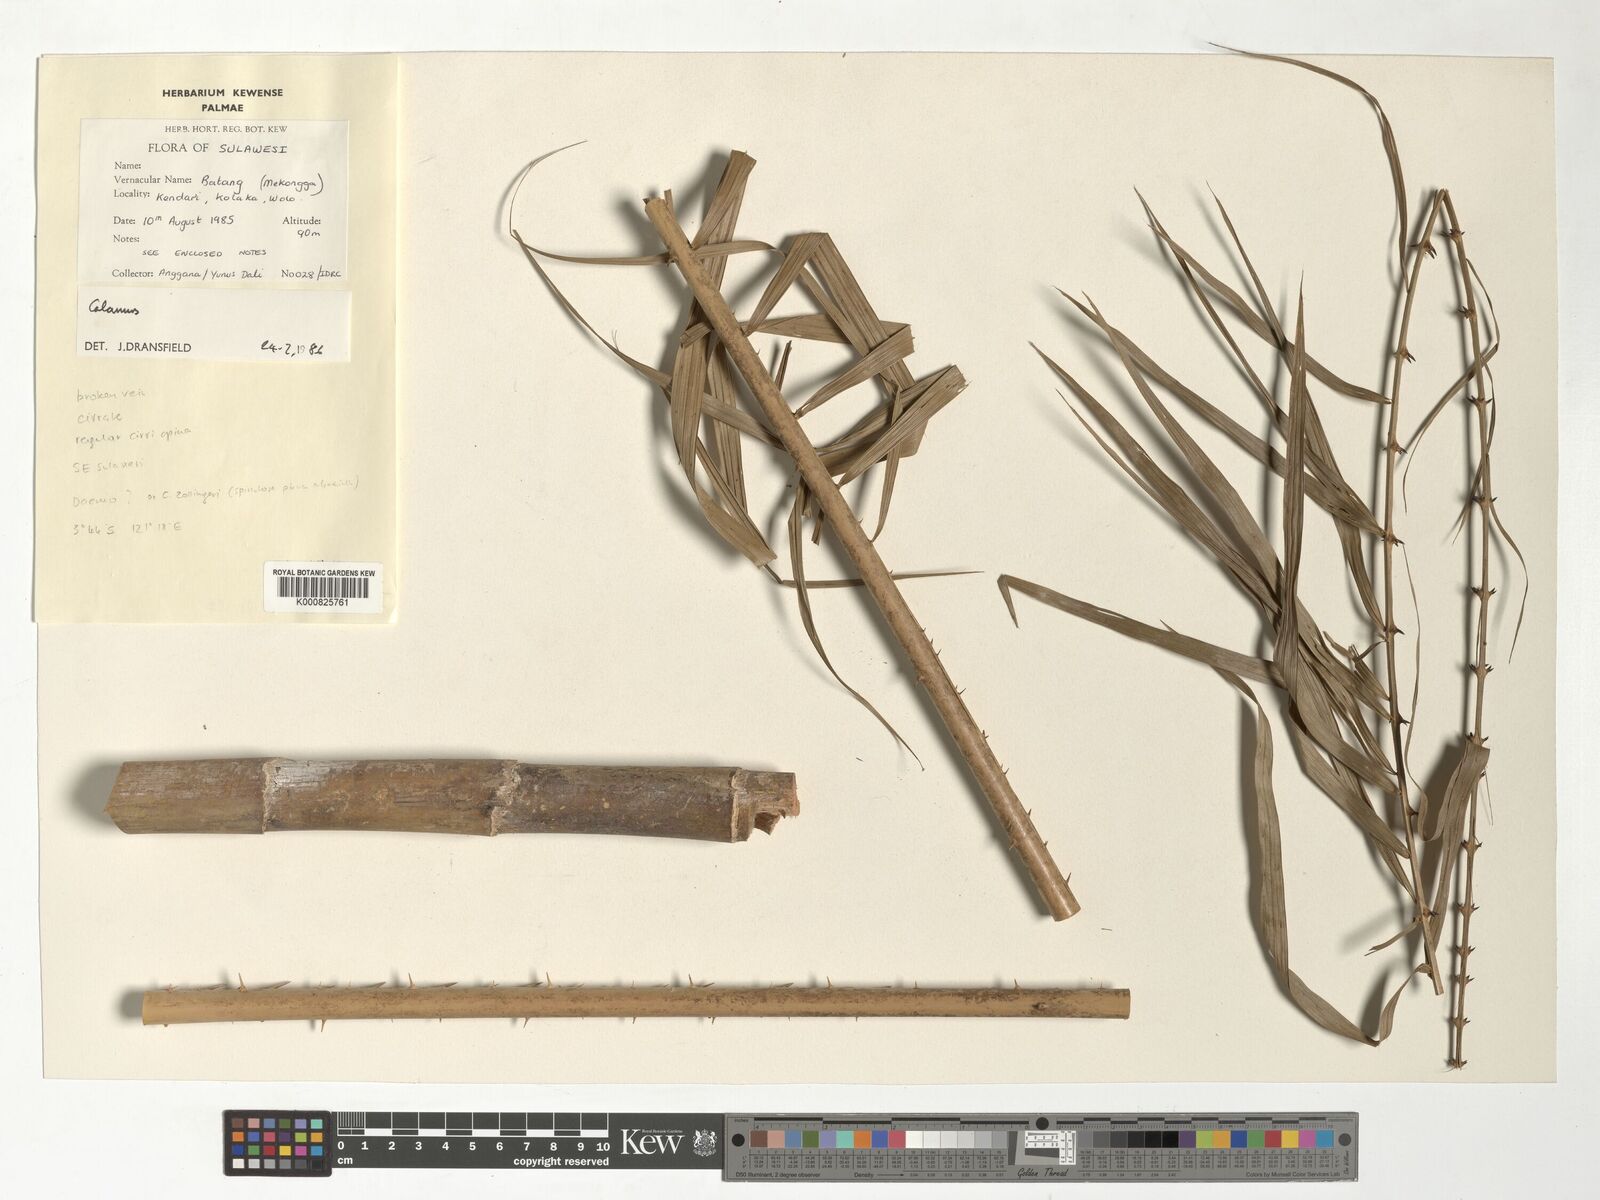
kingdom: Plantae
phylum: Tracheophyta
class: Liliopsida
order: Arecales
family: Arecaceae
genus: Calamus
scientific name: Calamus
